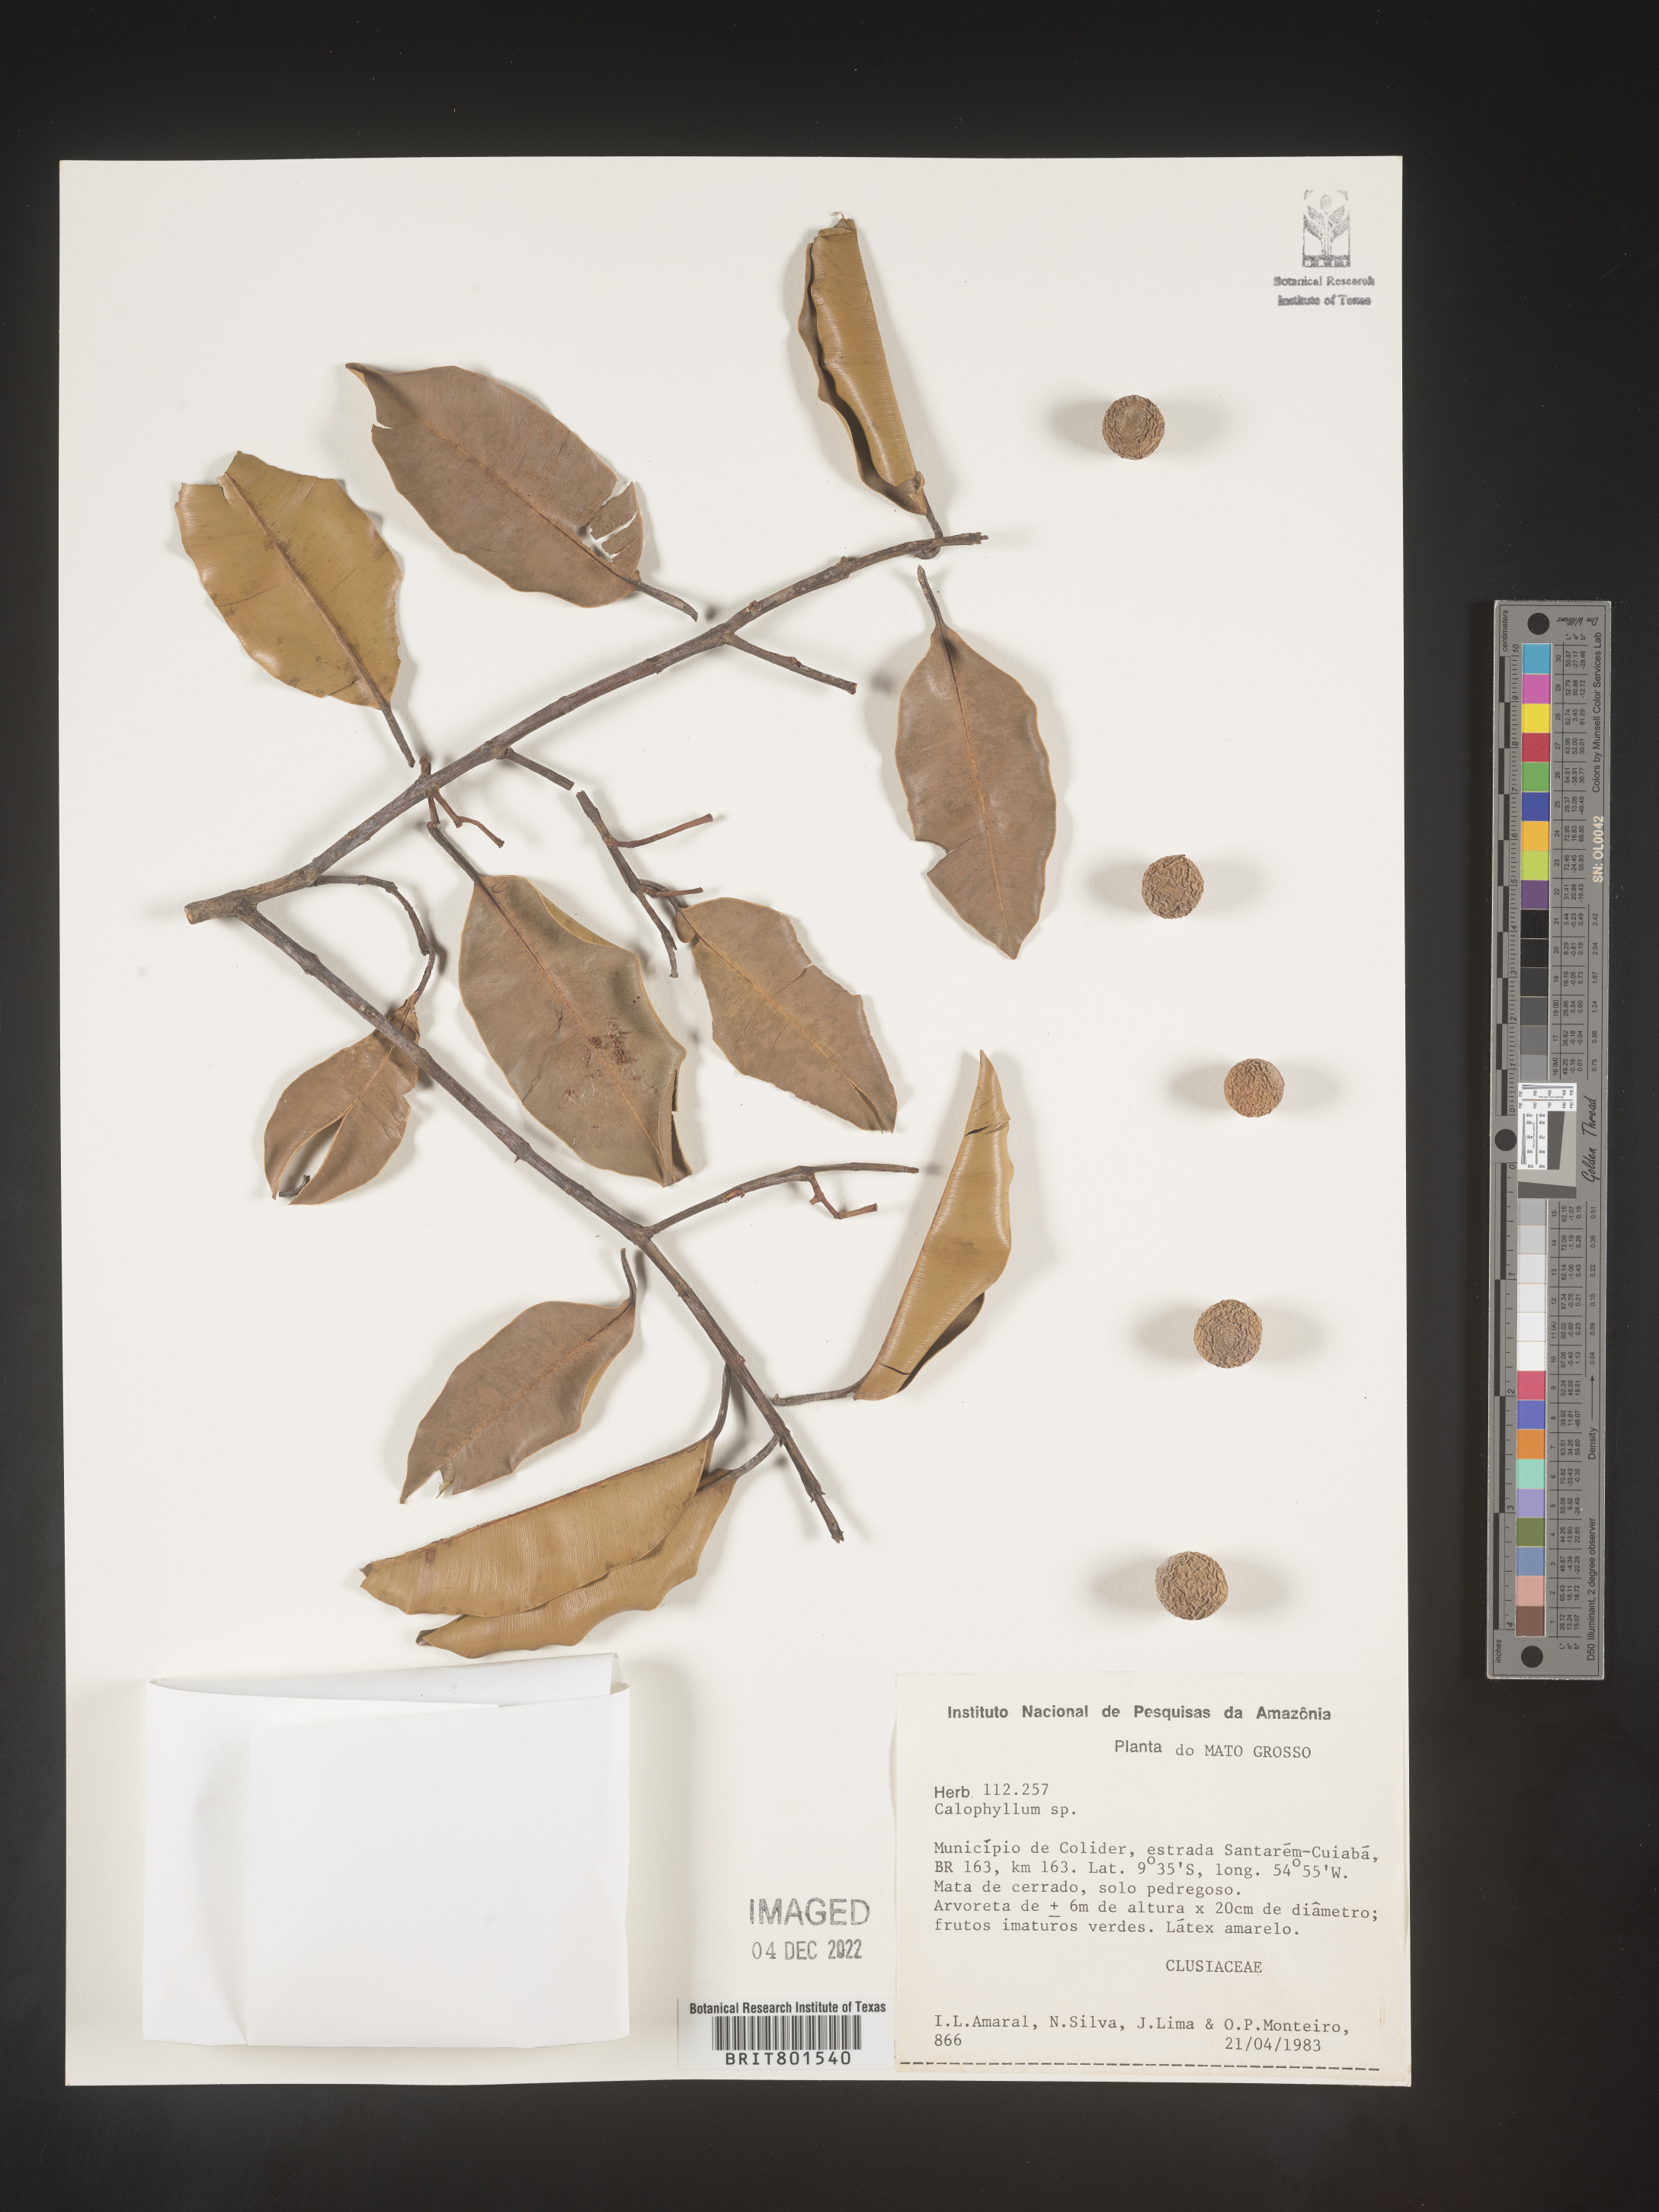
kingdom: Plantae
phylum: Tracheophyta
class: Magnoliopsida
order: Malpighiales
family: Calophyllaceae
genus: Calophyllum
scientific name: Calophyllum
